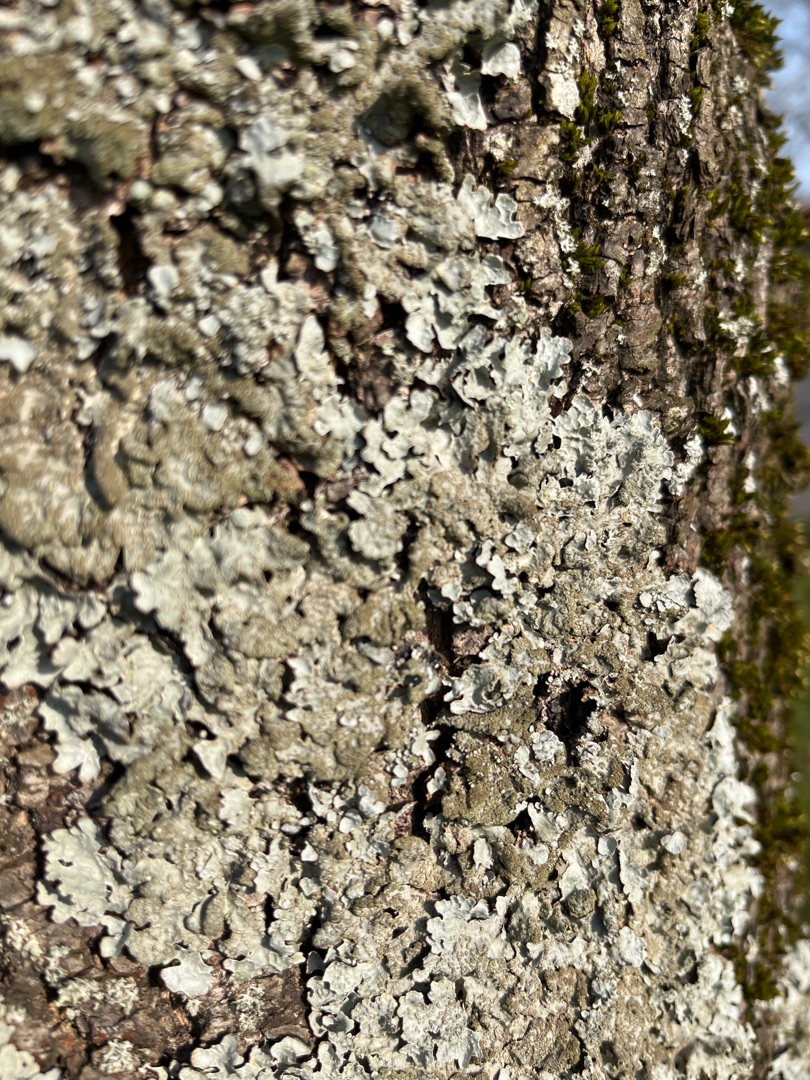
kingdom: Fungi
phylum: Ascomycota
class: Lecanoromycetes
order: Lecanorales
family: Parmeliaceae
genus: Parmelia
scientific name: Parmelia sulcata
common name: Rynket skållav
